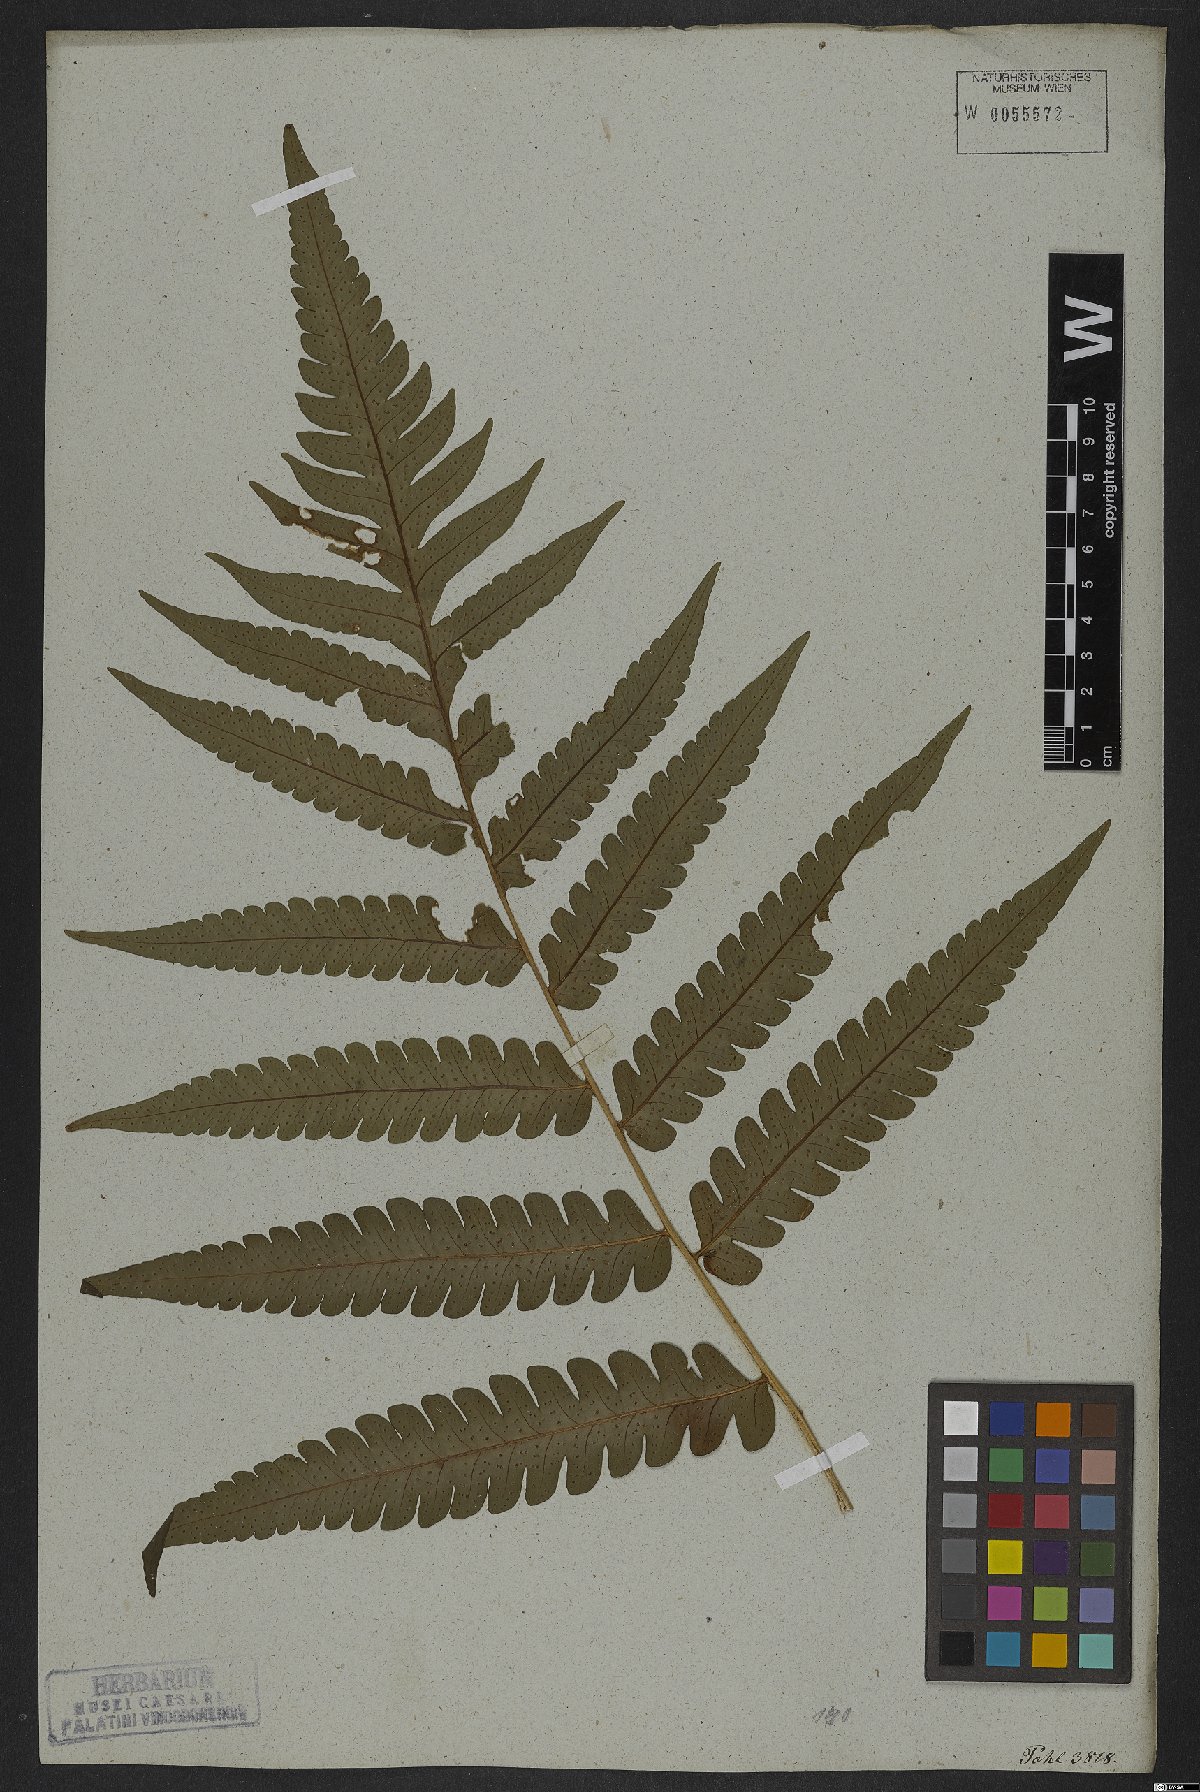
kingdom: Plantae
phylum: Tracheophyta
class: Polypodiopsida
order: Polypodiales
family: Dryopteridaceae
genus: Megalastrum
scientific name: Megalastrum grande
